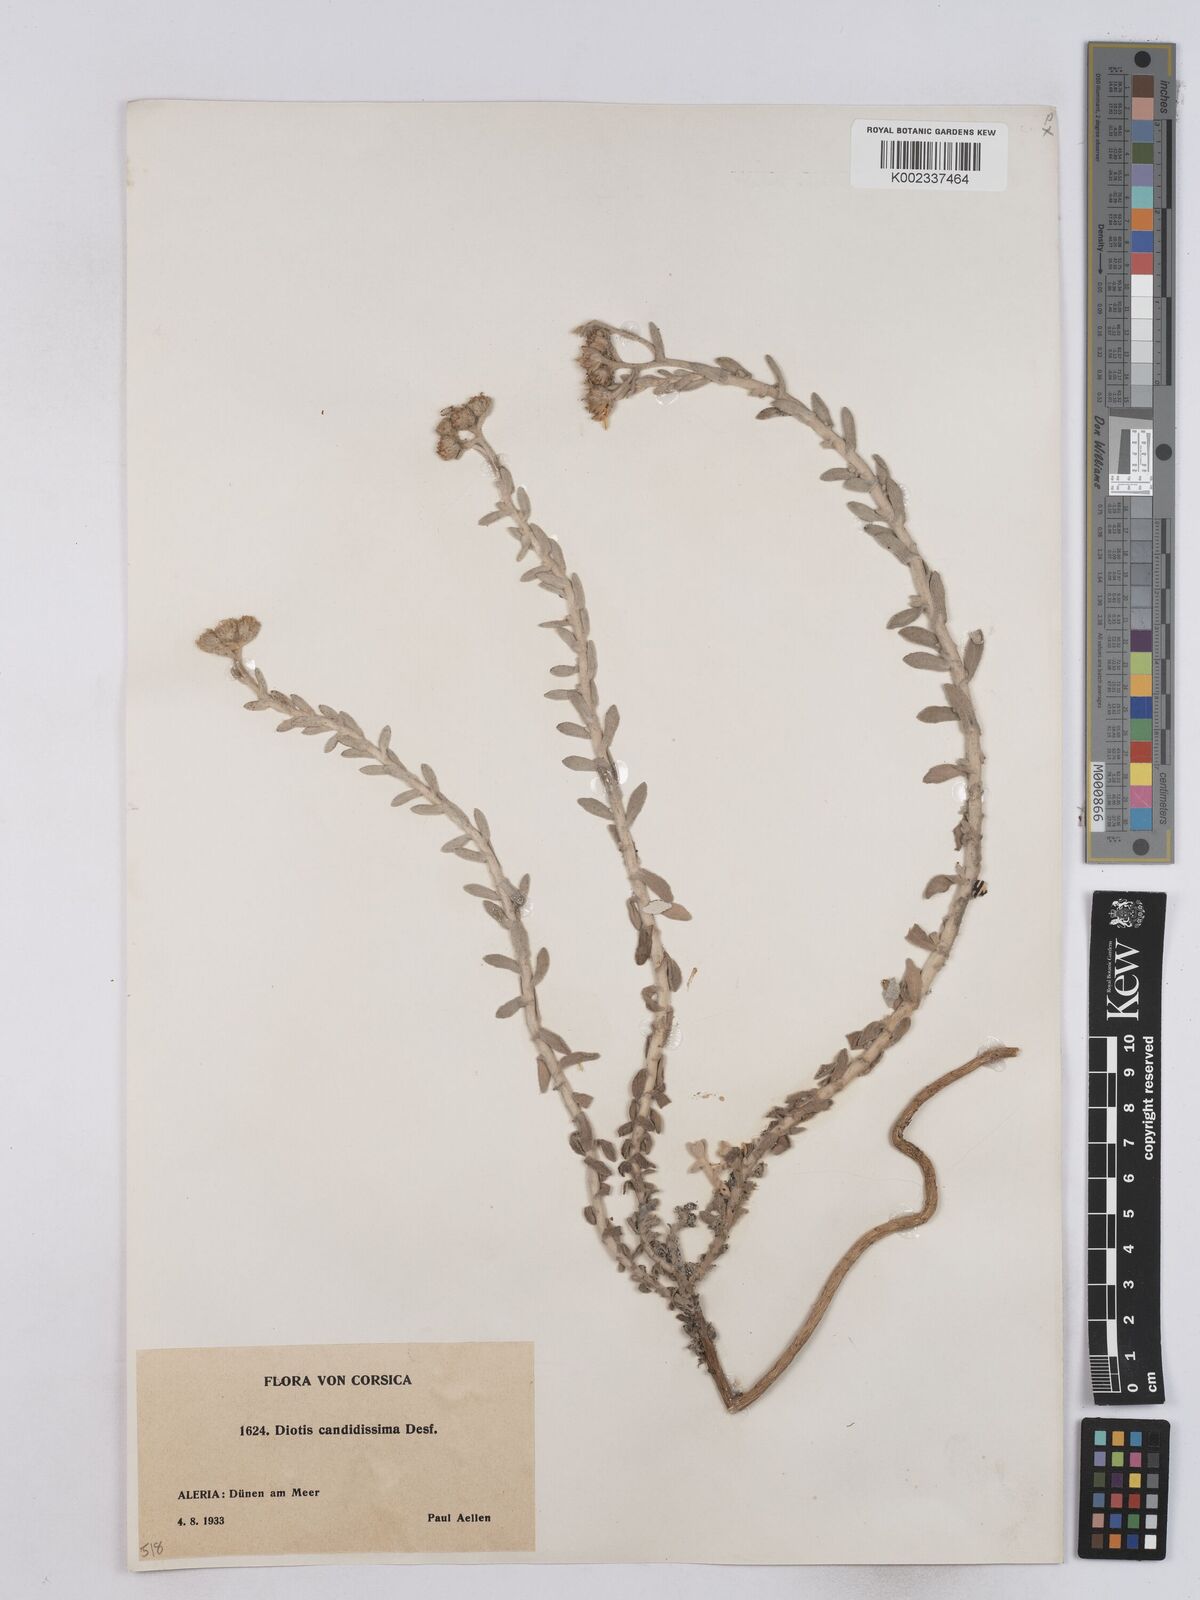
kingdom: Plantae
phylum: Tracheophyta
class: Magnoliopsida
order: Asterales
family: Asteraceae
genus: Achillea
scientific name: Achillea maritima
